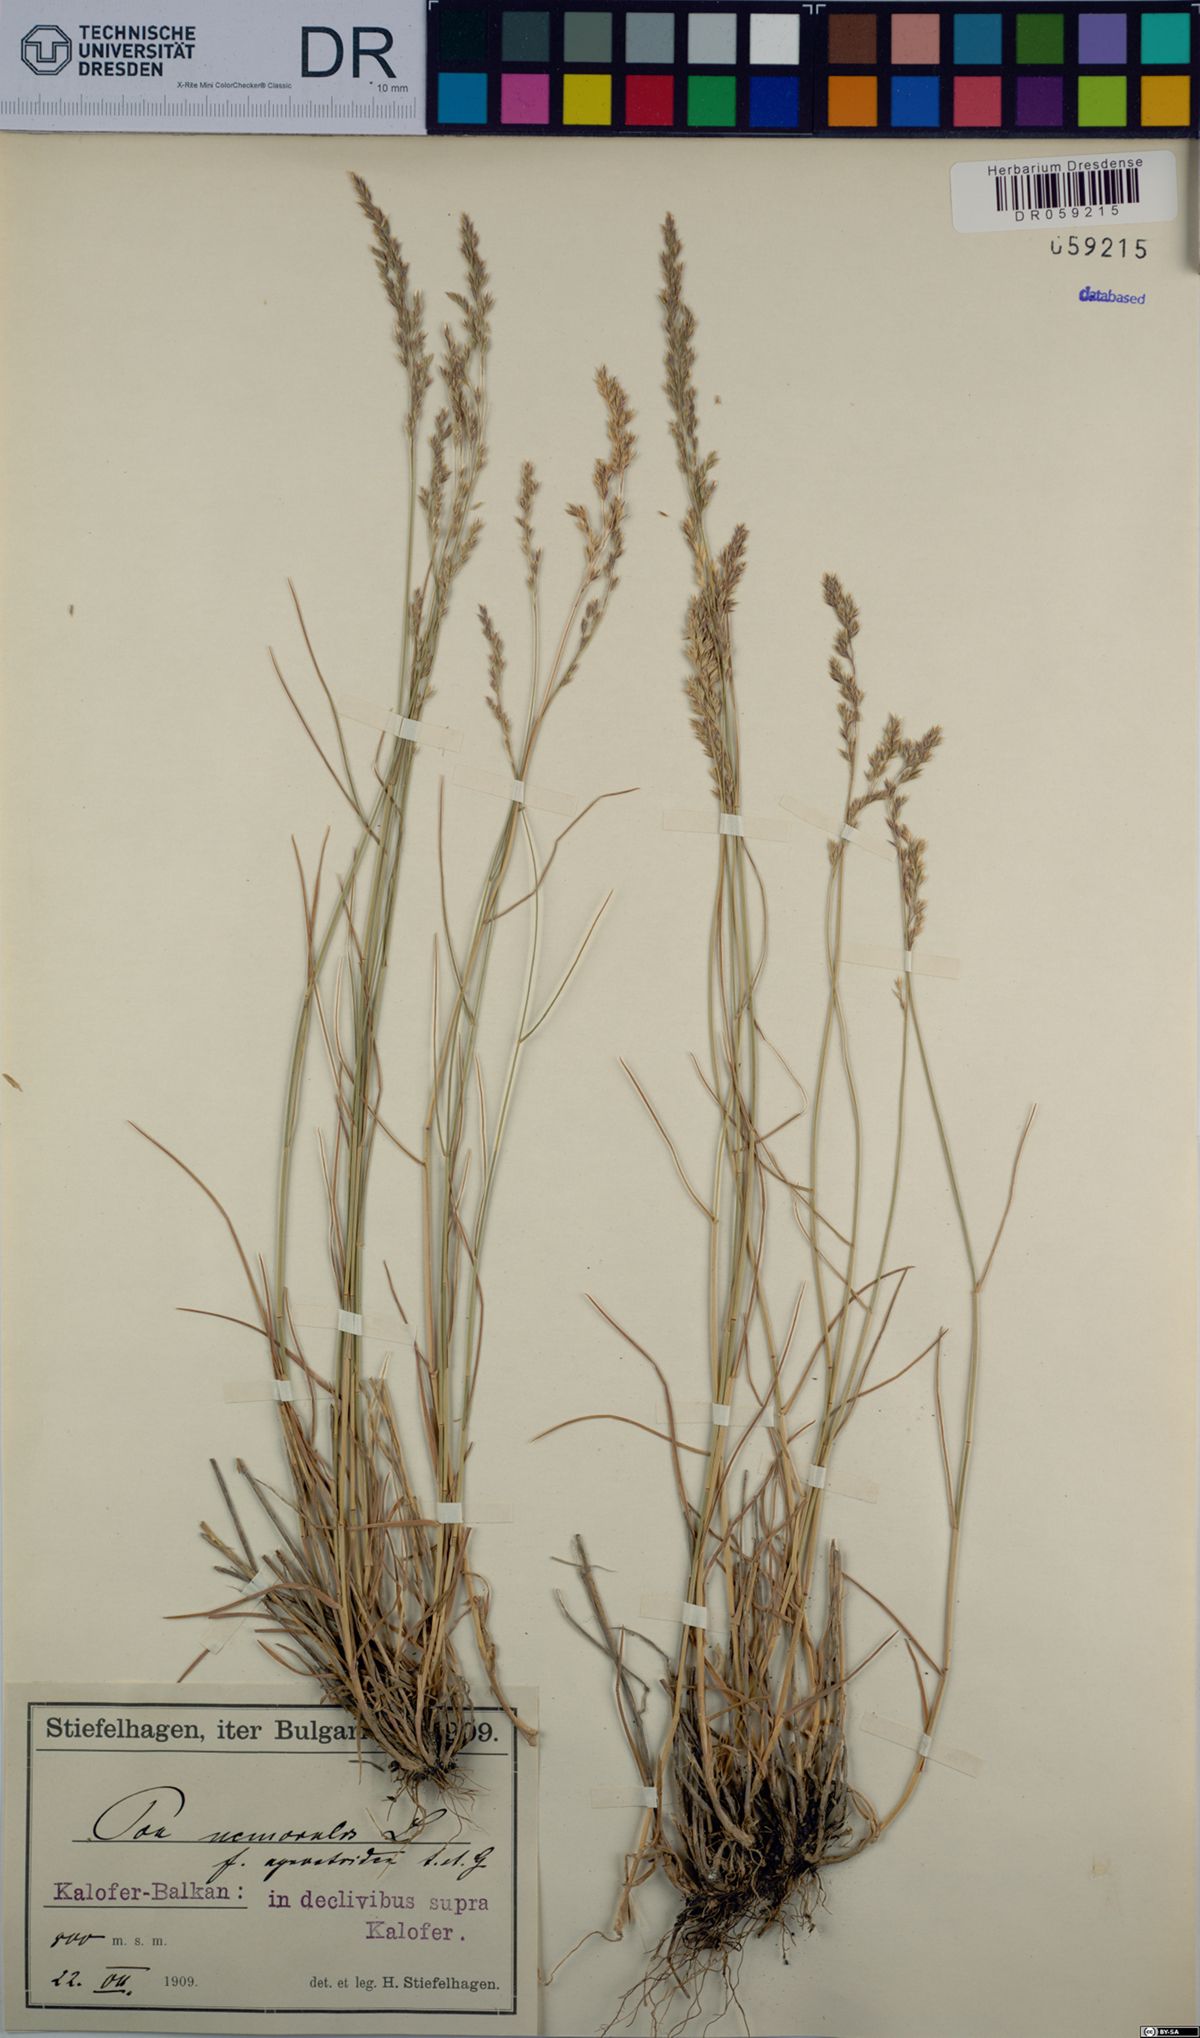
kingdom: Plantae
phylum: Tracheophyta
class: Liliopsida
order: Poales
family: Poaceae
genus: Poa
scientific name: Poa nemoralis
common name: Wood bluegrass
